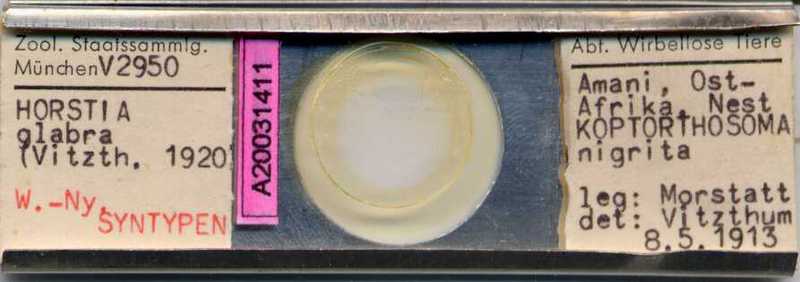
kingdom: Animalia
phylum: Hemichordata
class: Enteropneusta
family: Harrimaniidae
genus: Horstia
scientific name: Horstia
